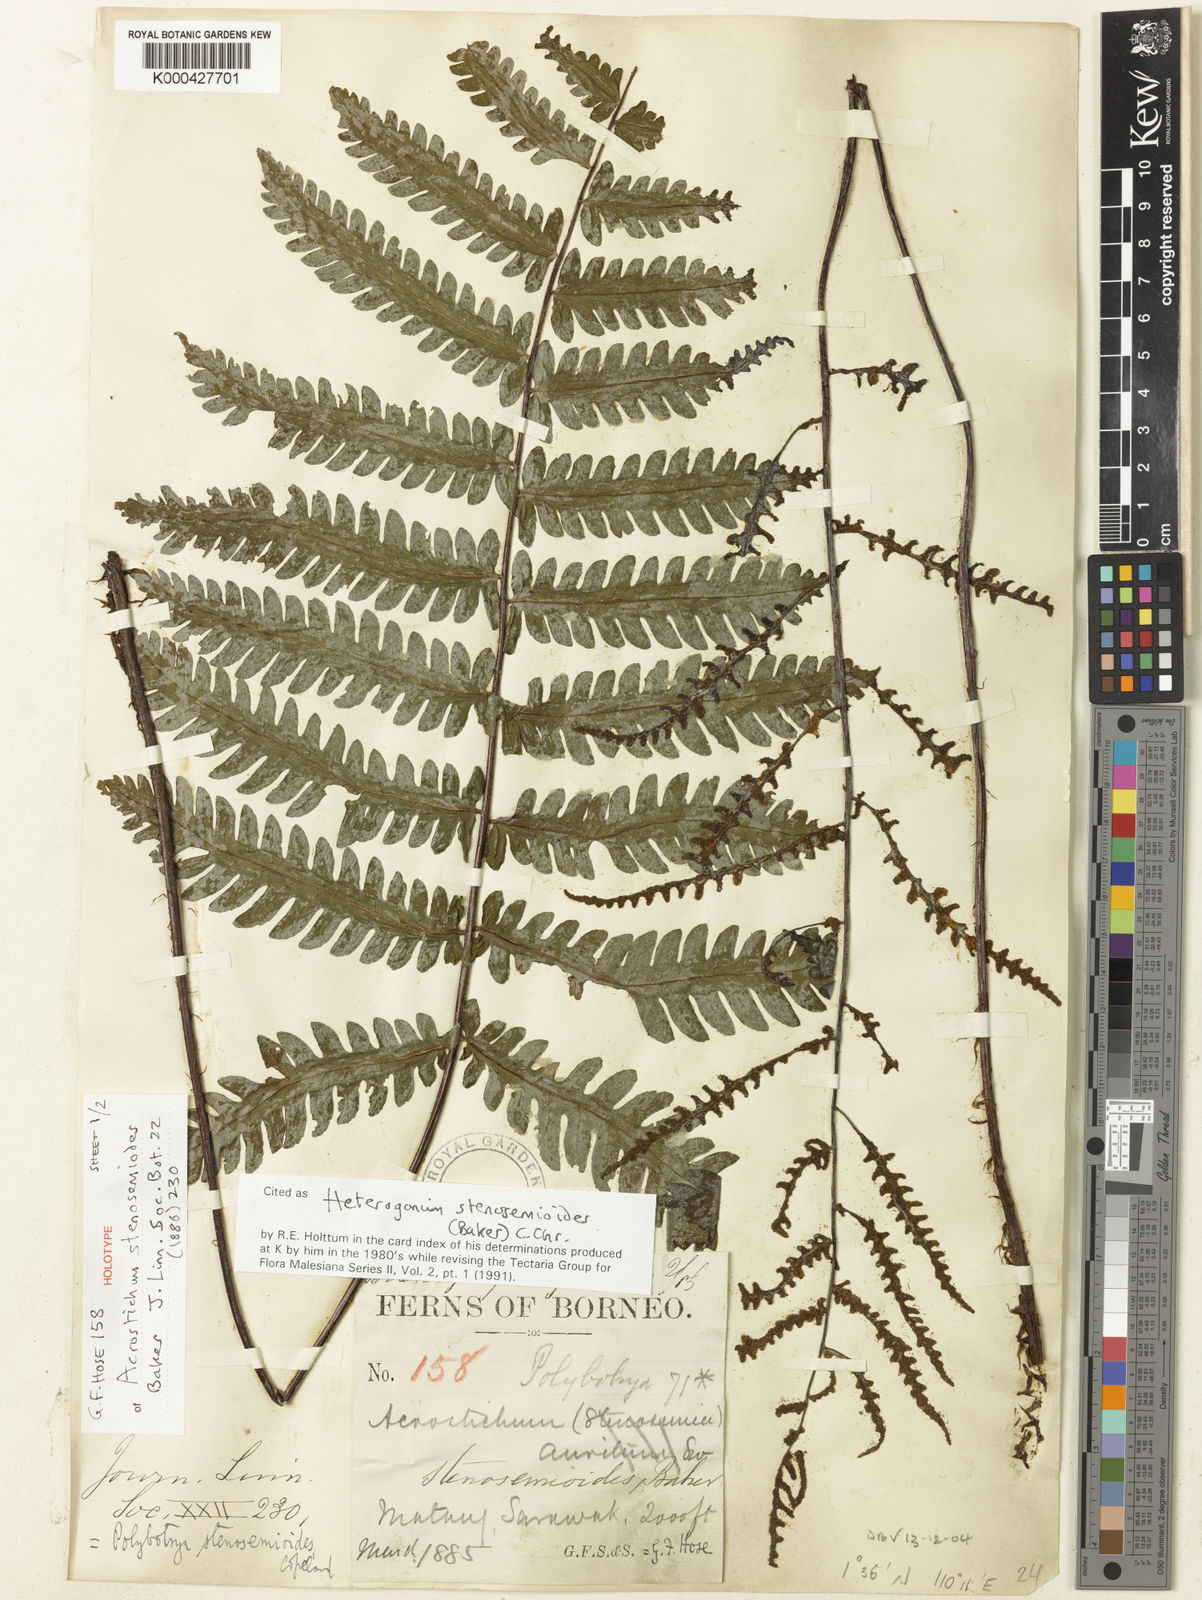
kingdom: Plantae
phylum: Tracheophyta
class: Polypodiopsida
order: Polypodiales
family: Tectariaceae
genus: Tectaria
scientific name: Tectaria borneensis
